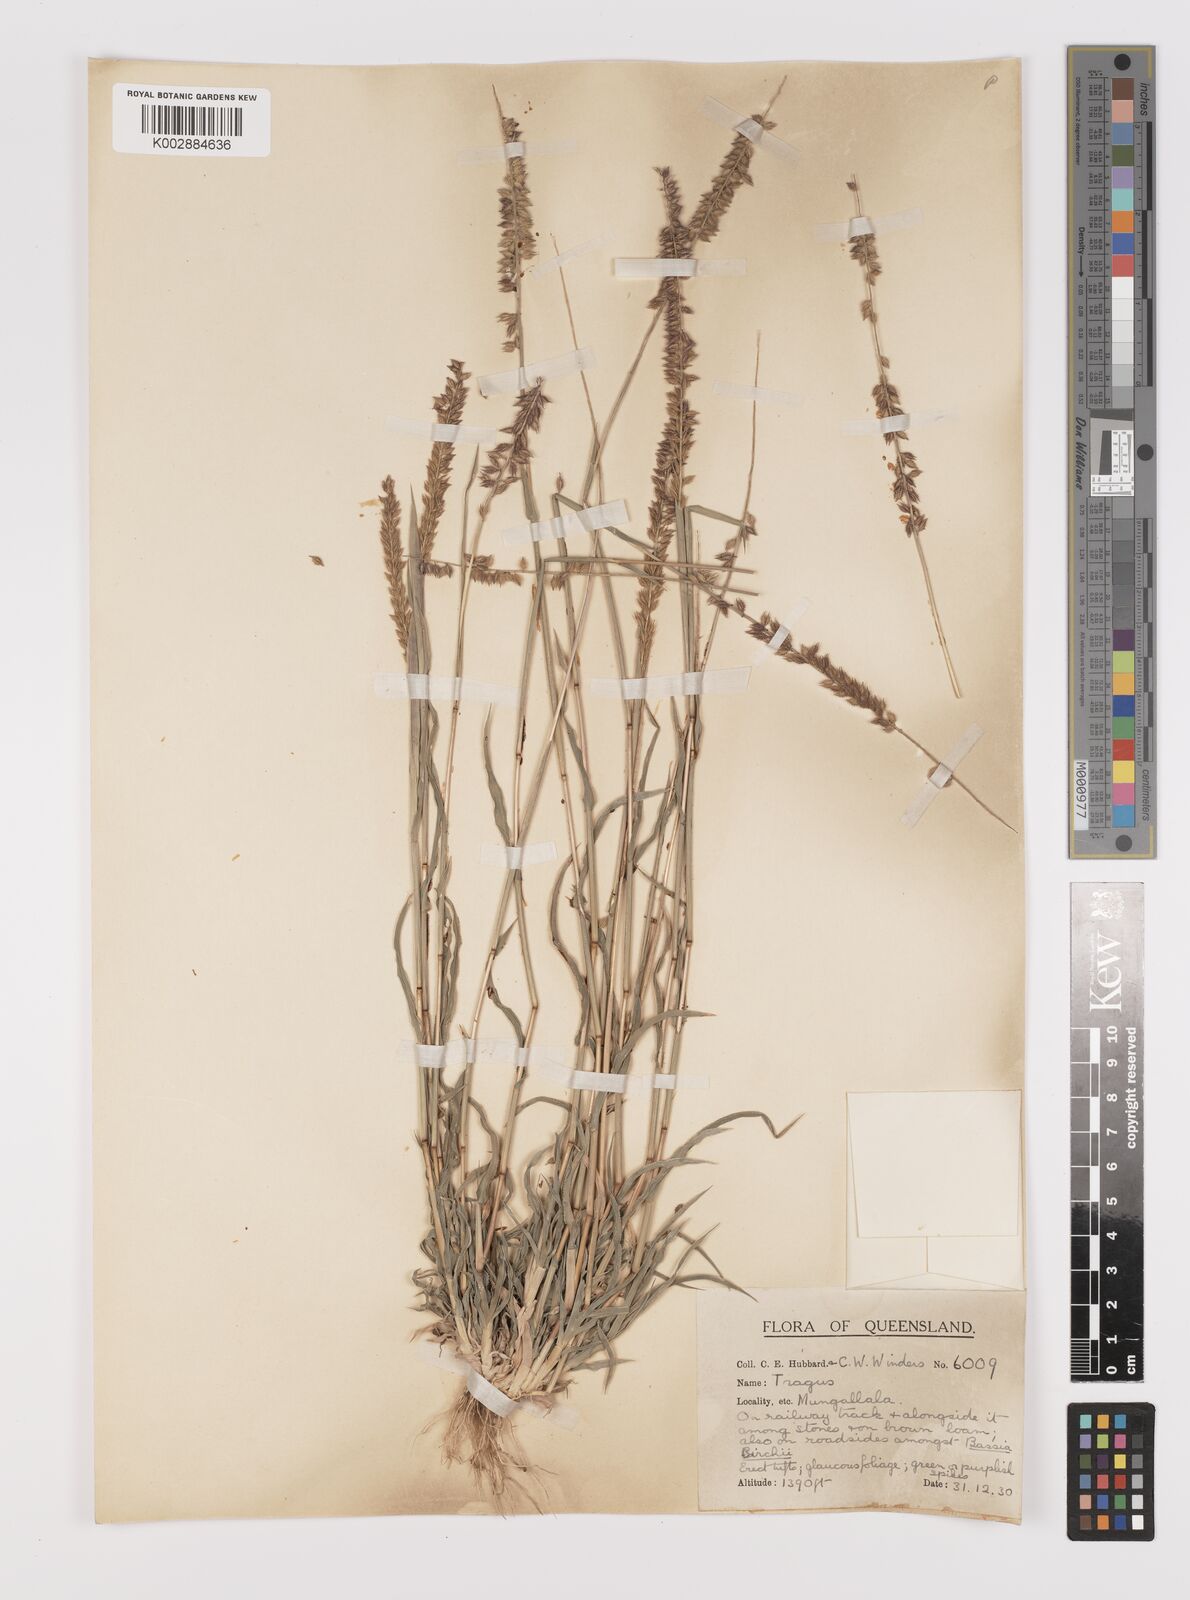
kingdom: Plantae
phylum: Tracheophyta
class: Liliopsida
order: Poales
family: Poaceae
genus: Tragus
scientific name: Tragus australianus
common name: Australian bur-grass
